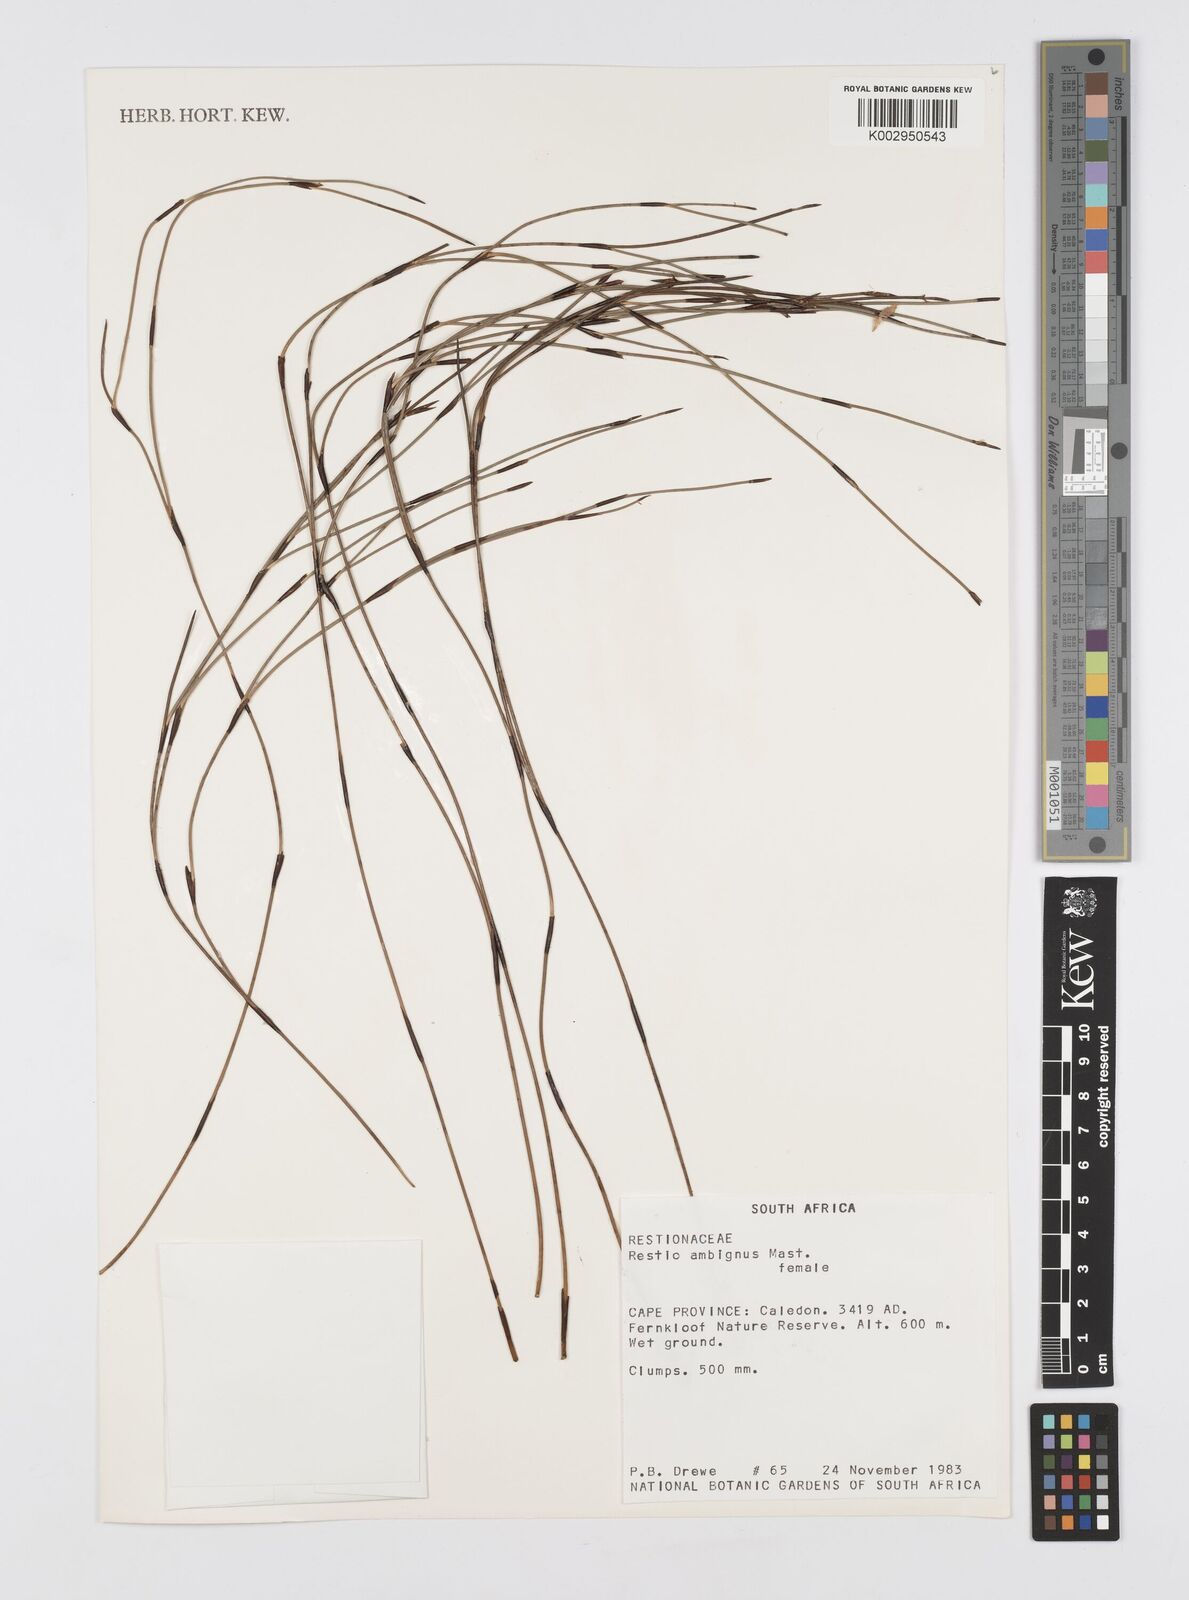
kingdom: Plantae
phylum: Tracheophyta
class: Liliopsida
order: Poales
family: Restionaceae
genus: Soroveta
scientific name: Soroveta ambigua
